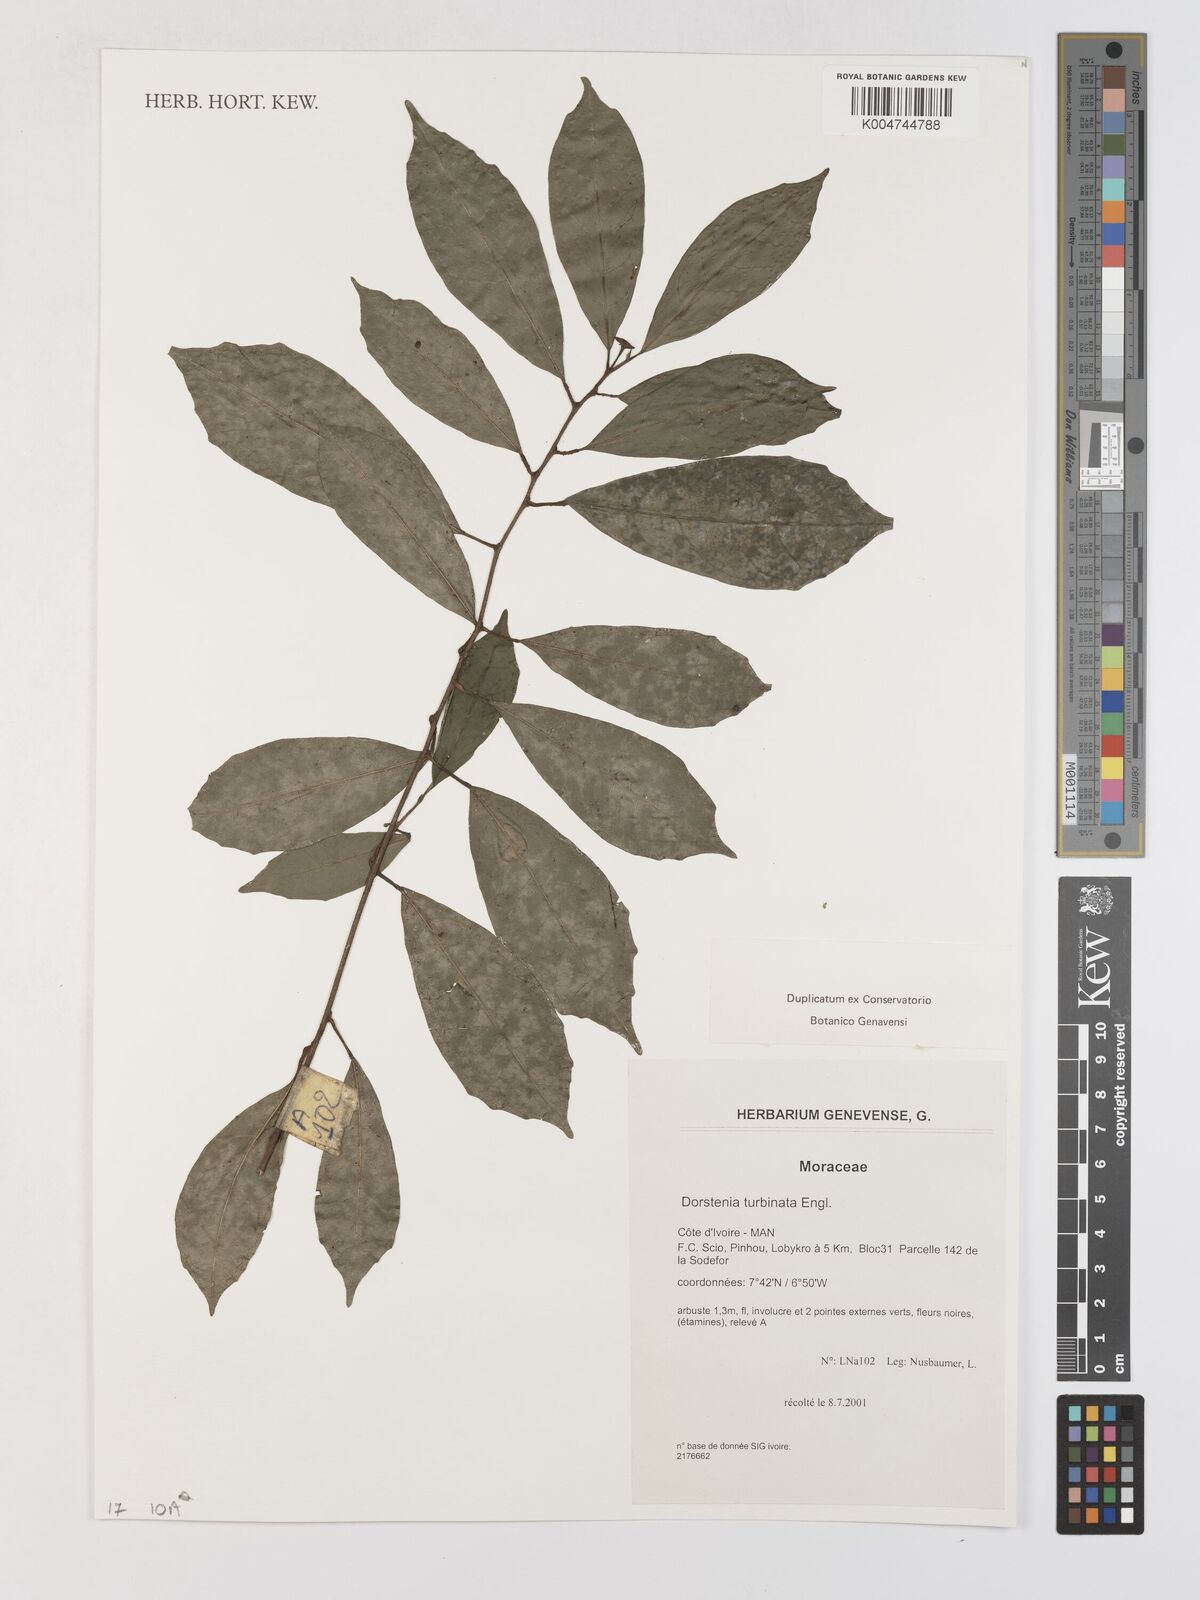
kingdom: Plantae
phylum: Tracheophyta
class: Magnoliopsida
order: Rosales
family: Moraceae
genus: Hijmania
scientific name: Hijmania turbinata
